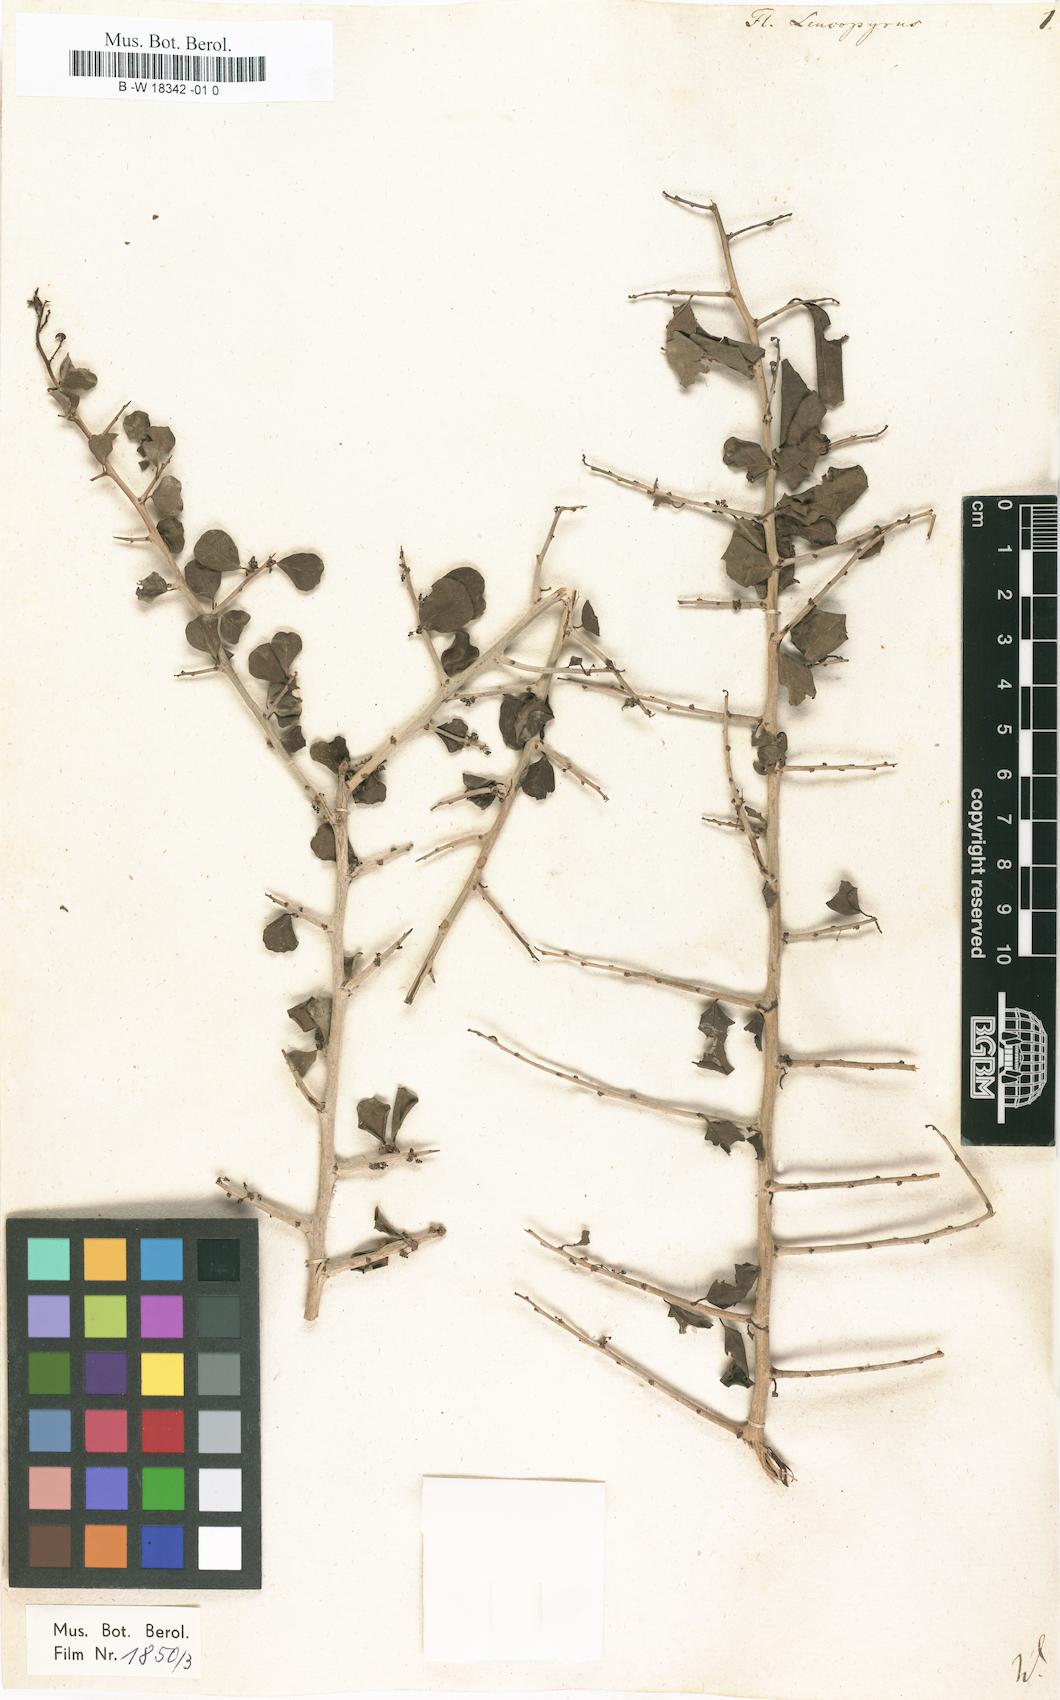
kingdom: Plantae
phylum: Tracheophyta
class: Magnoliopsida
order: Malpighiales
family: Phyllanthaceae
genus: Flueggea
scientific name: Flueggea leucopyrus
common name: Bushweed
